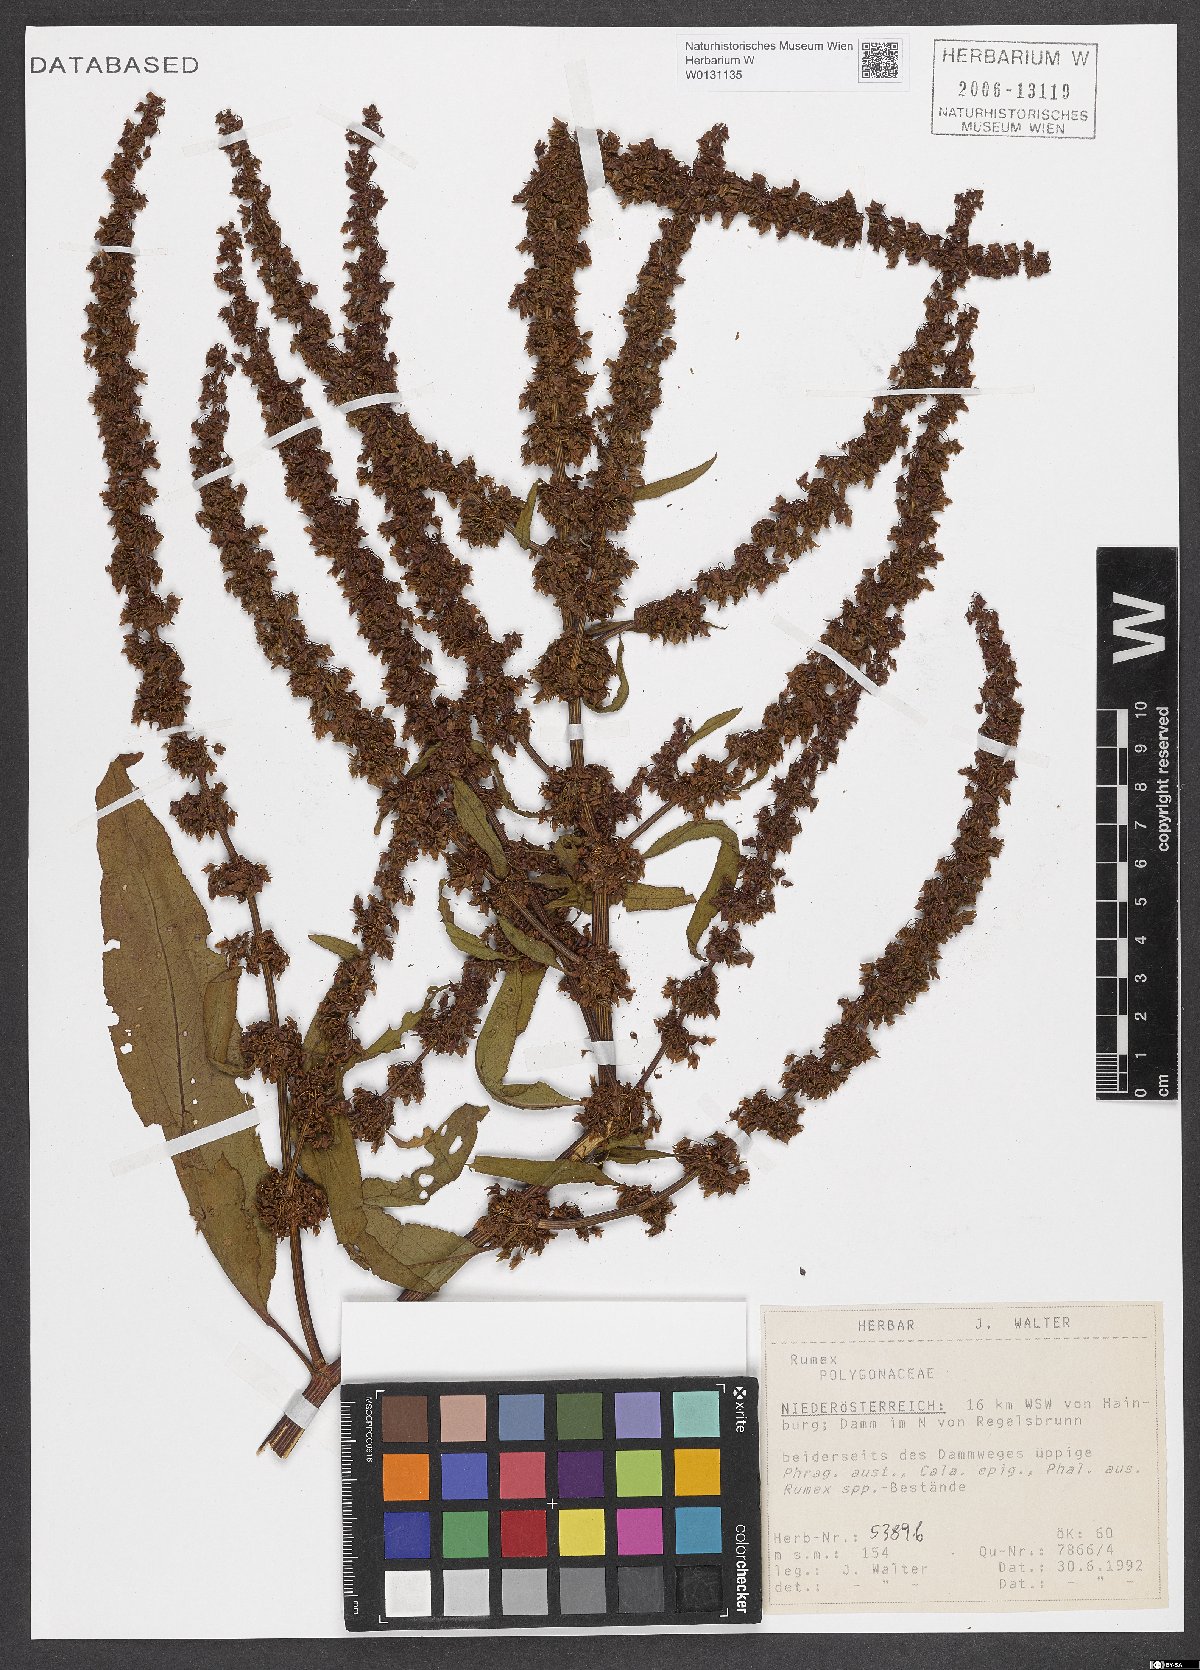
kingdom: Plantae
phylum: Tracheophyta
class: Magnoliopsida
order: Caryophyllales
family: Polygonaceae
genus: Rumex
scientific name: Rumex
